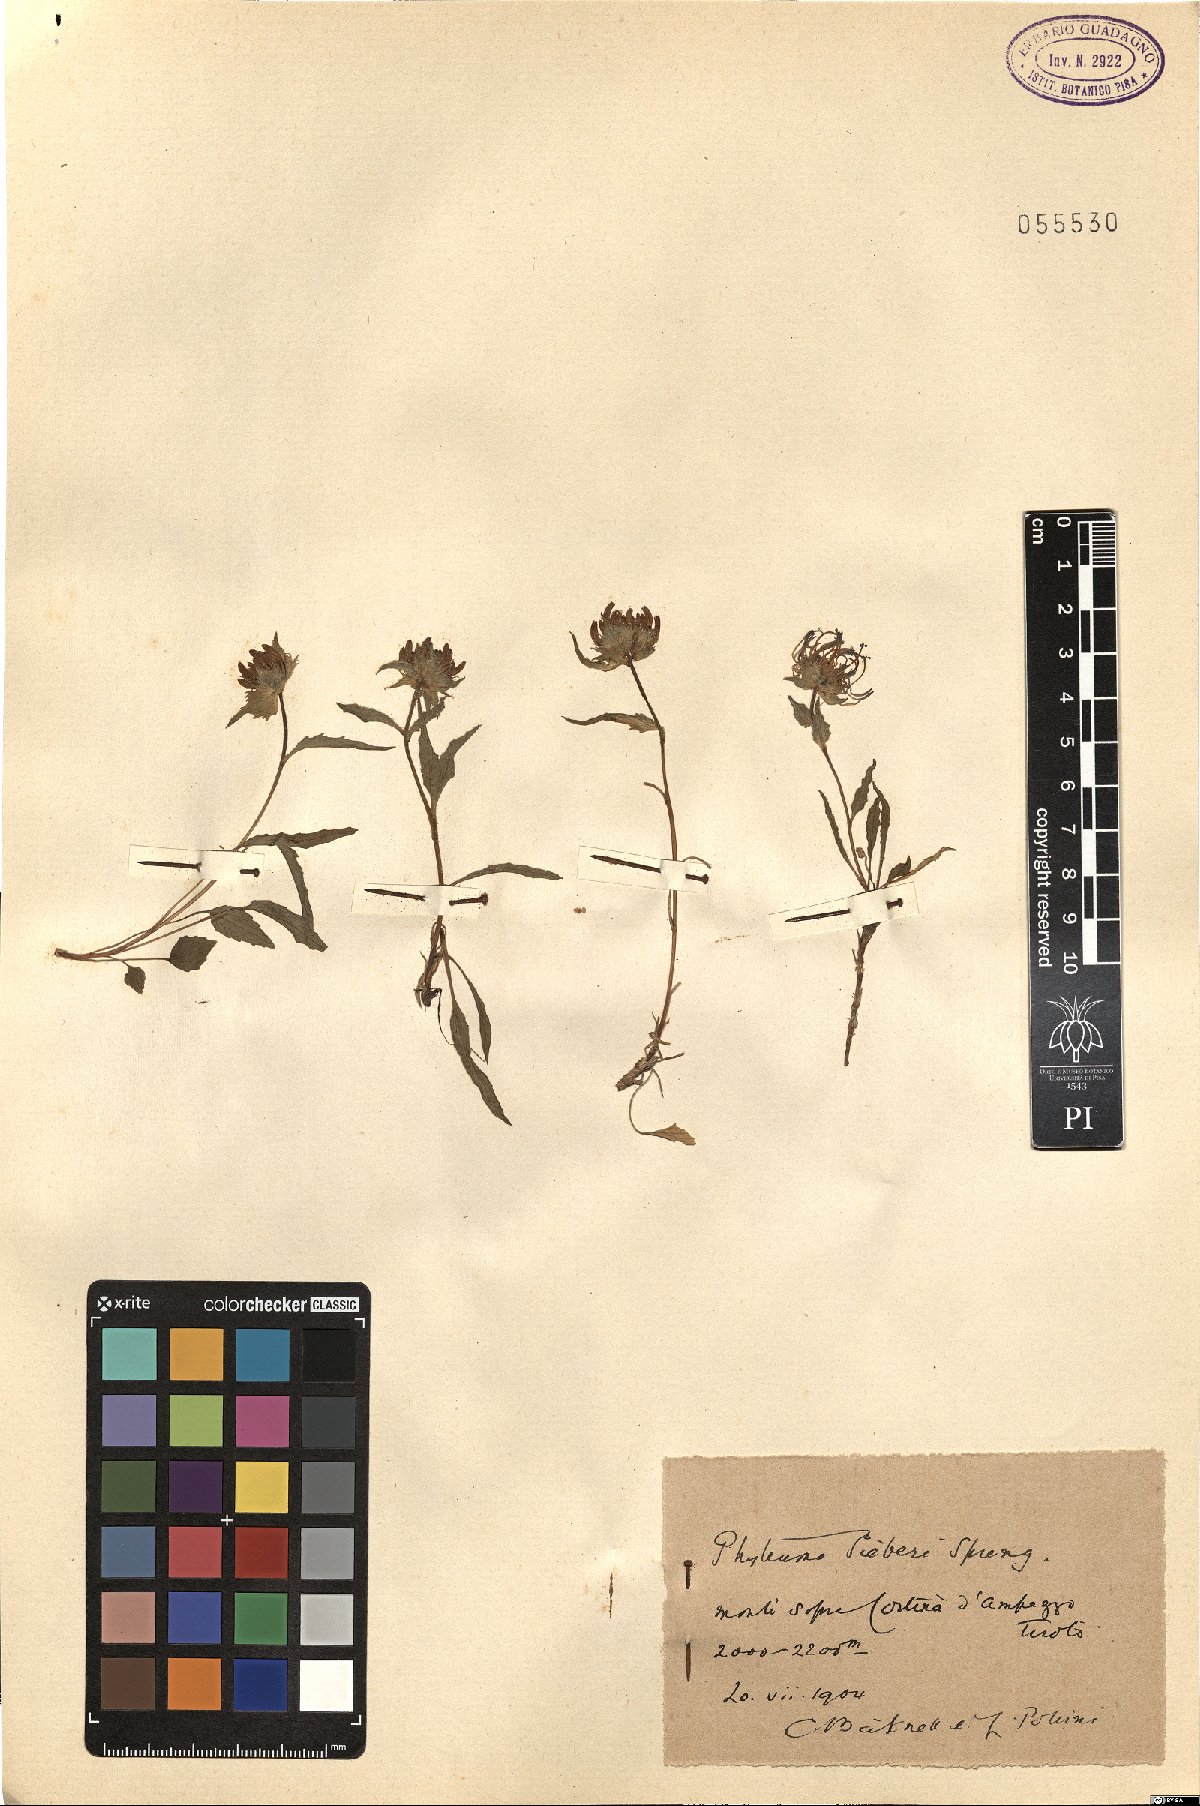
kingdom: Plantae
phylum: Tracheophyta
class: Magnoliopsida
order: Asterales
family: Campanulaceae
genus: Phyteuma
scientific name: Phyteuma sieberi
